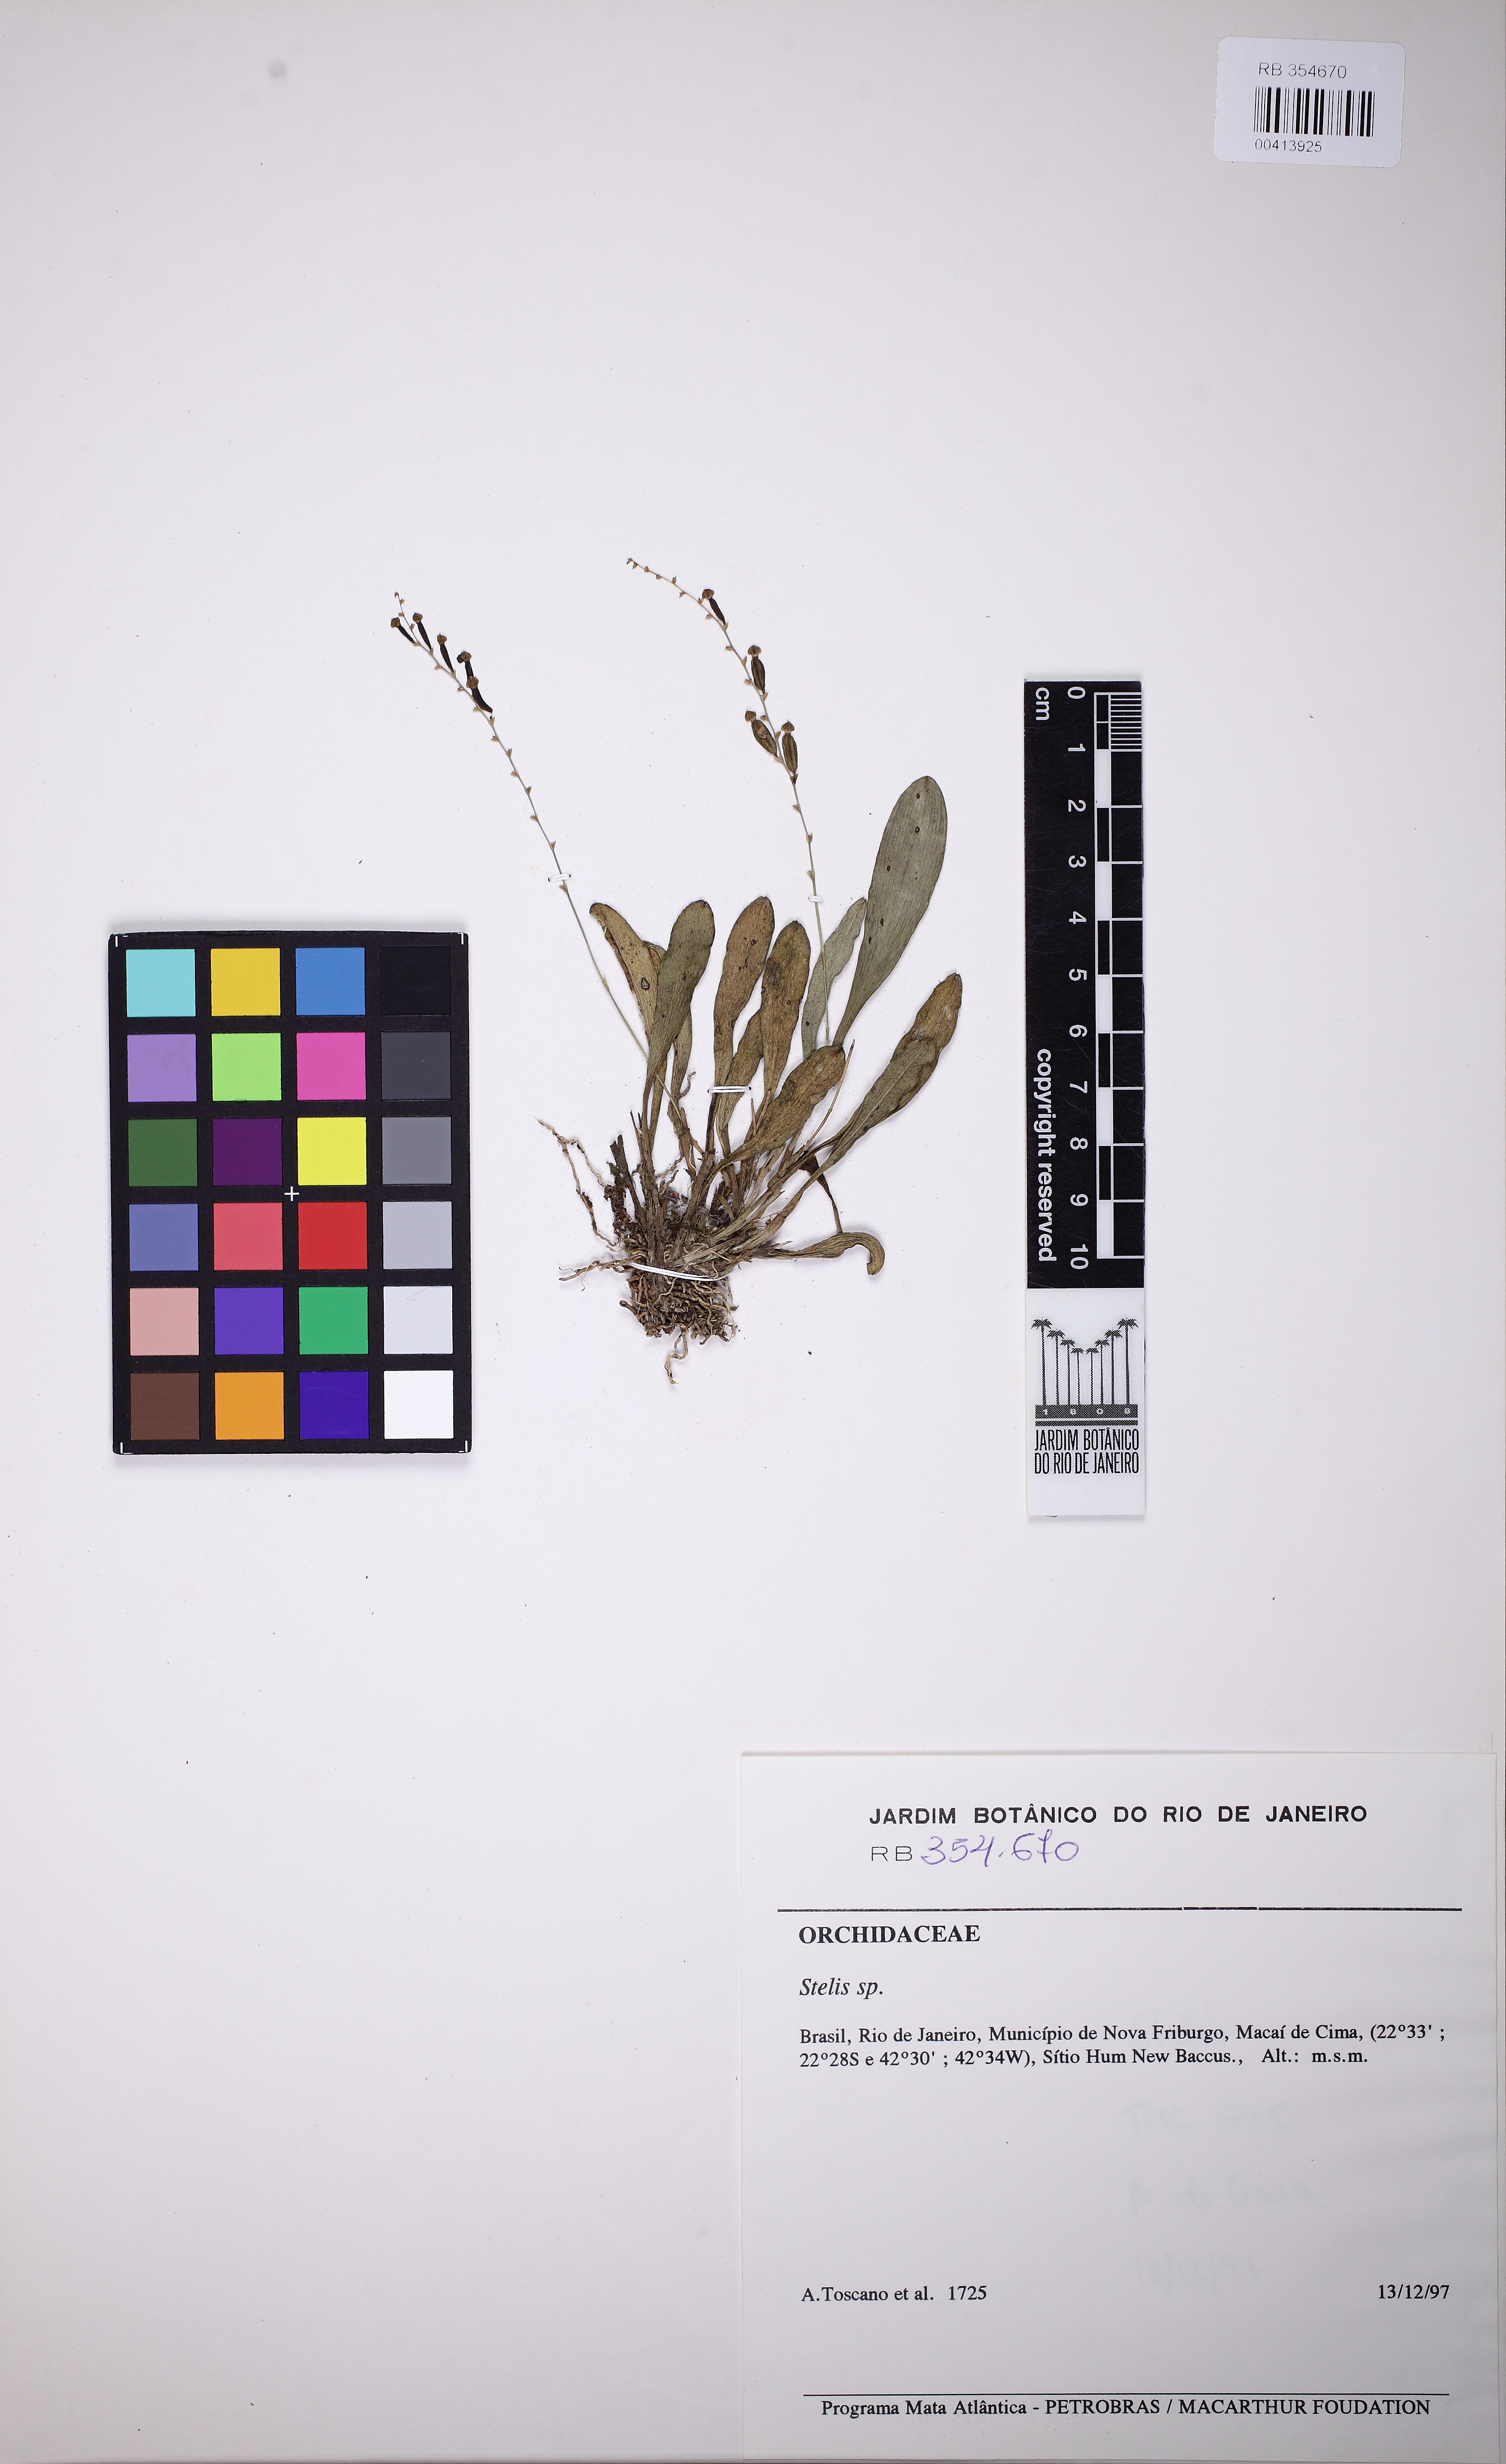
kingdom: Plantae
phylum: Tracheophyta
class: Liliopsida
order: Asparagales
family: Orchidaceae
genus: Stelis
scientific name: Stelis
